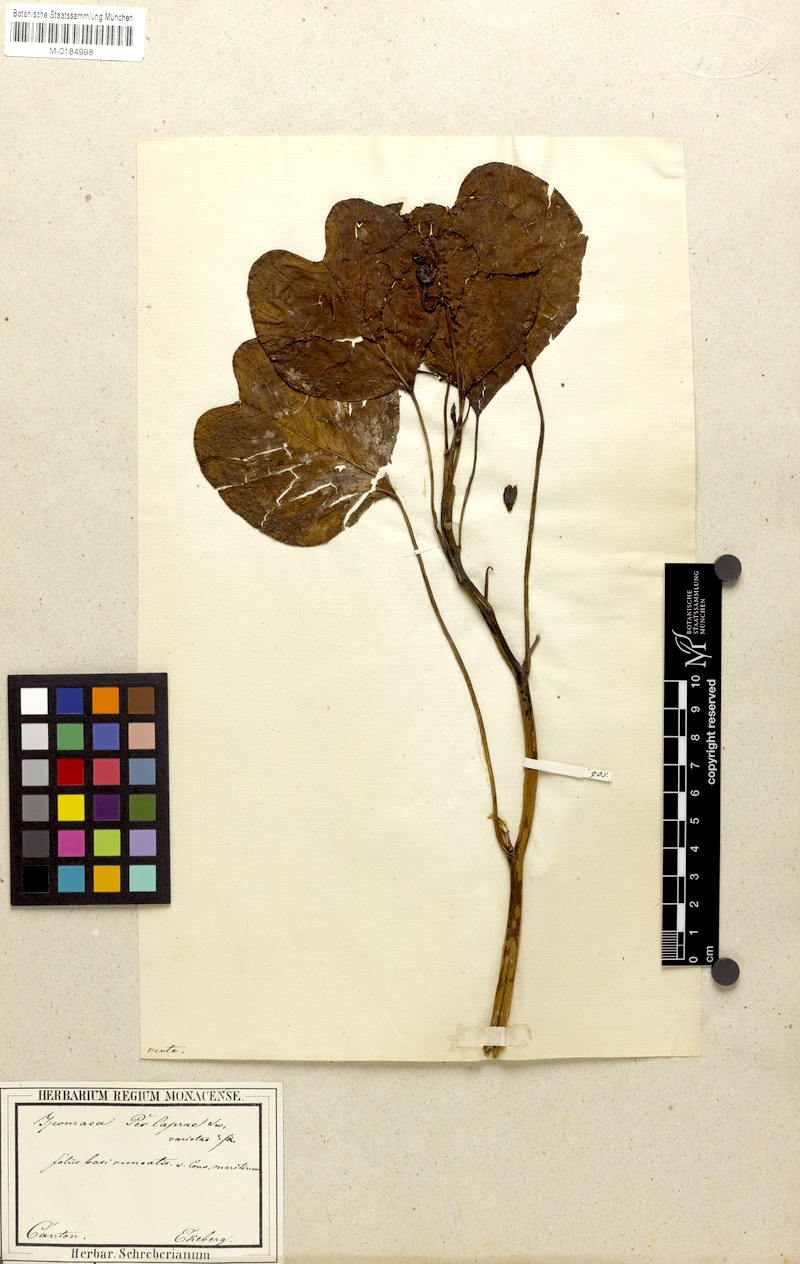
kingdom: Plantae
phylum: Tracheophyta
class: Magnoliopsida
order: Solanales
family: Convolvulaceae
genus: Ipomoea
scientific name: Ipomoea pes-caprae
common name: Beach morning glory
